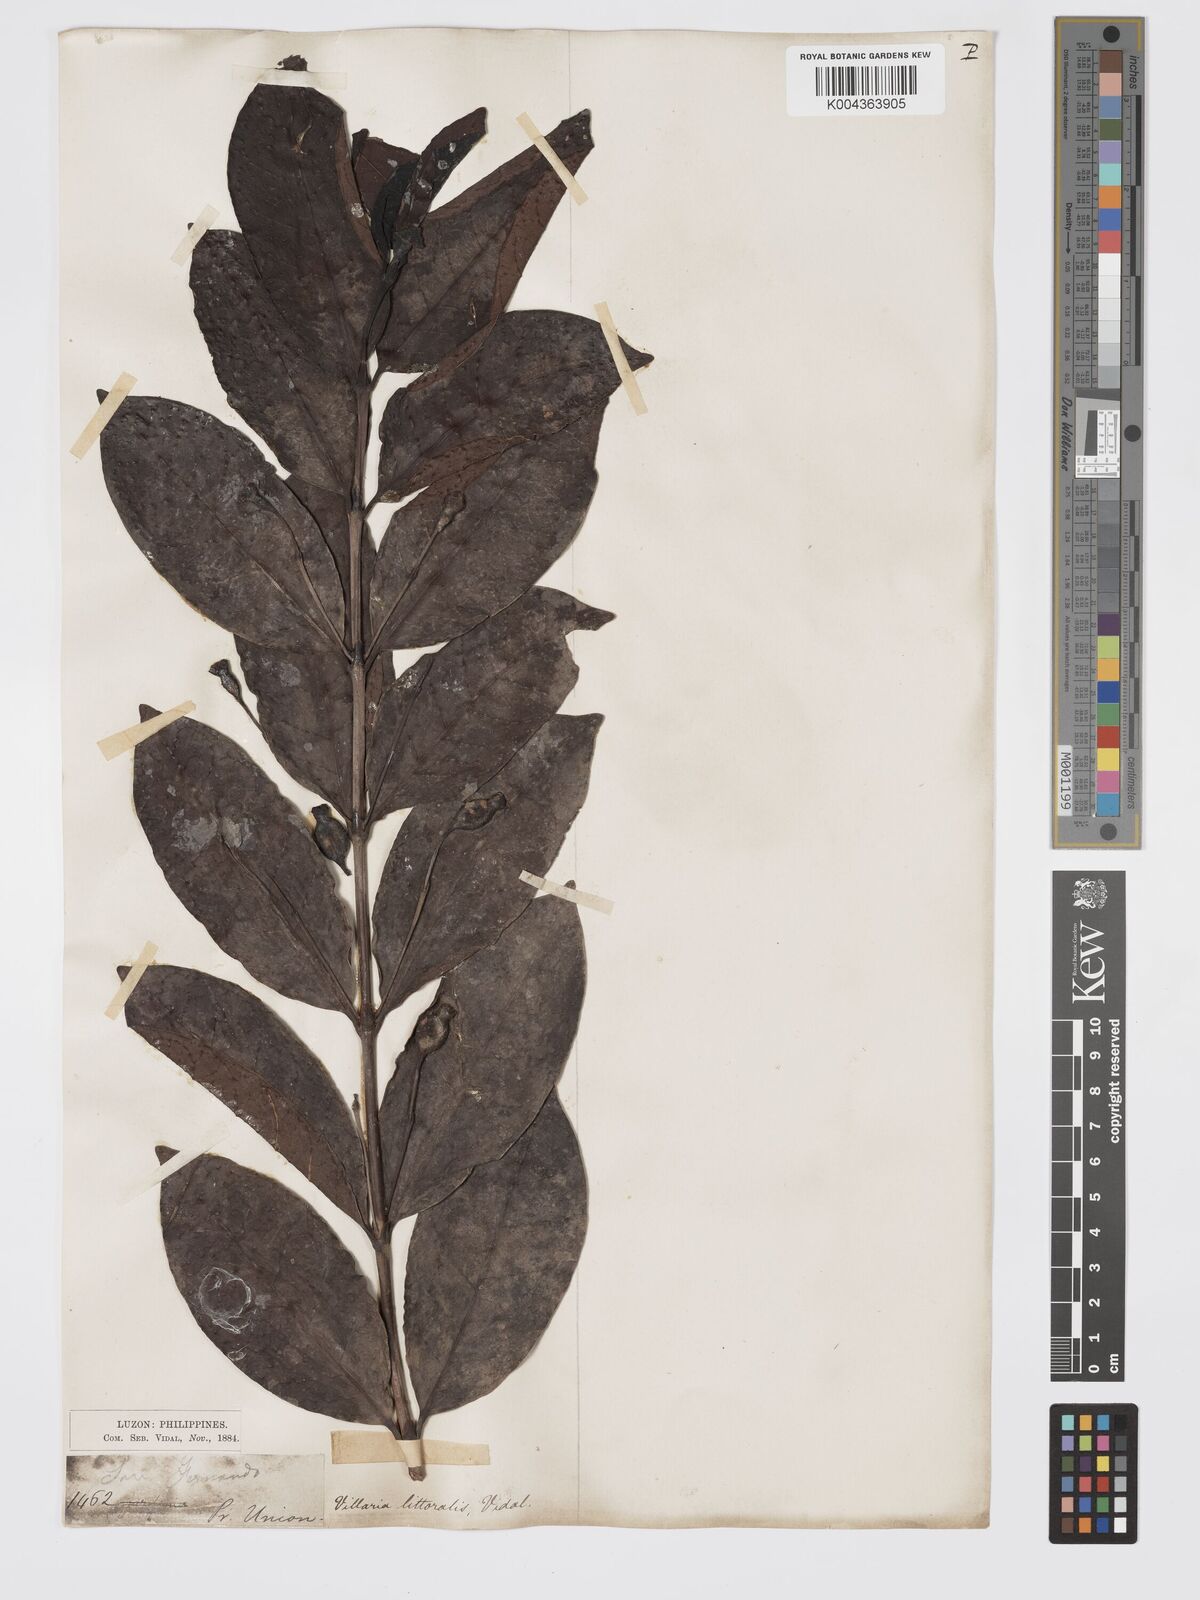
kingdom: Plantae
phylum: Tracheophyta
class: Magnoliopsida
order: Gentianales
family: Rubiaceae
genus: Villaria
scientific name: Villaria odorata
